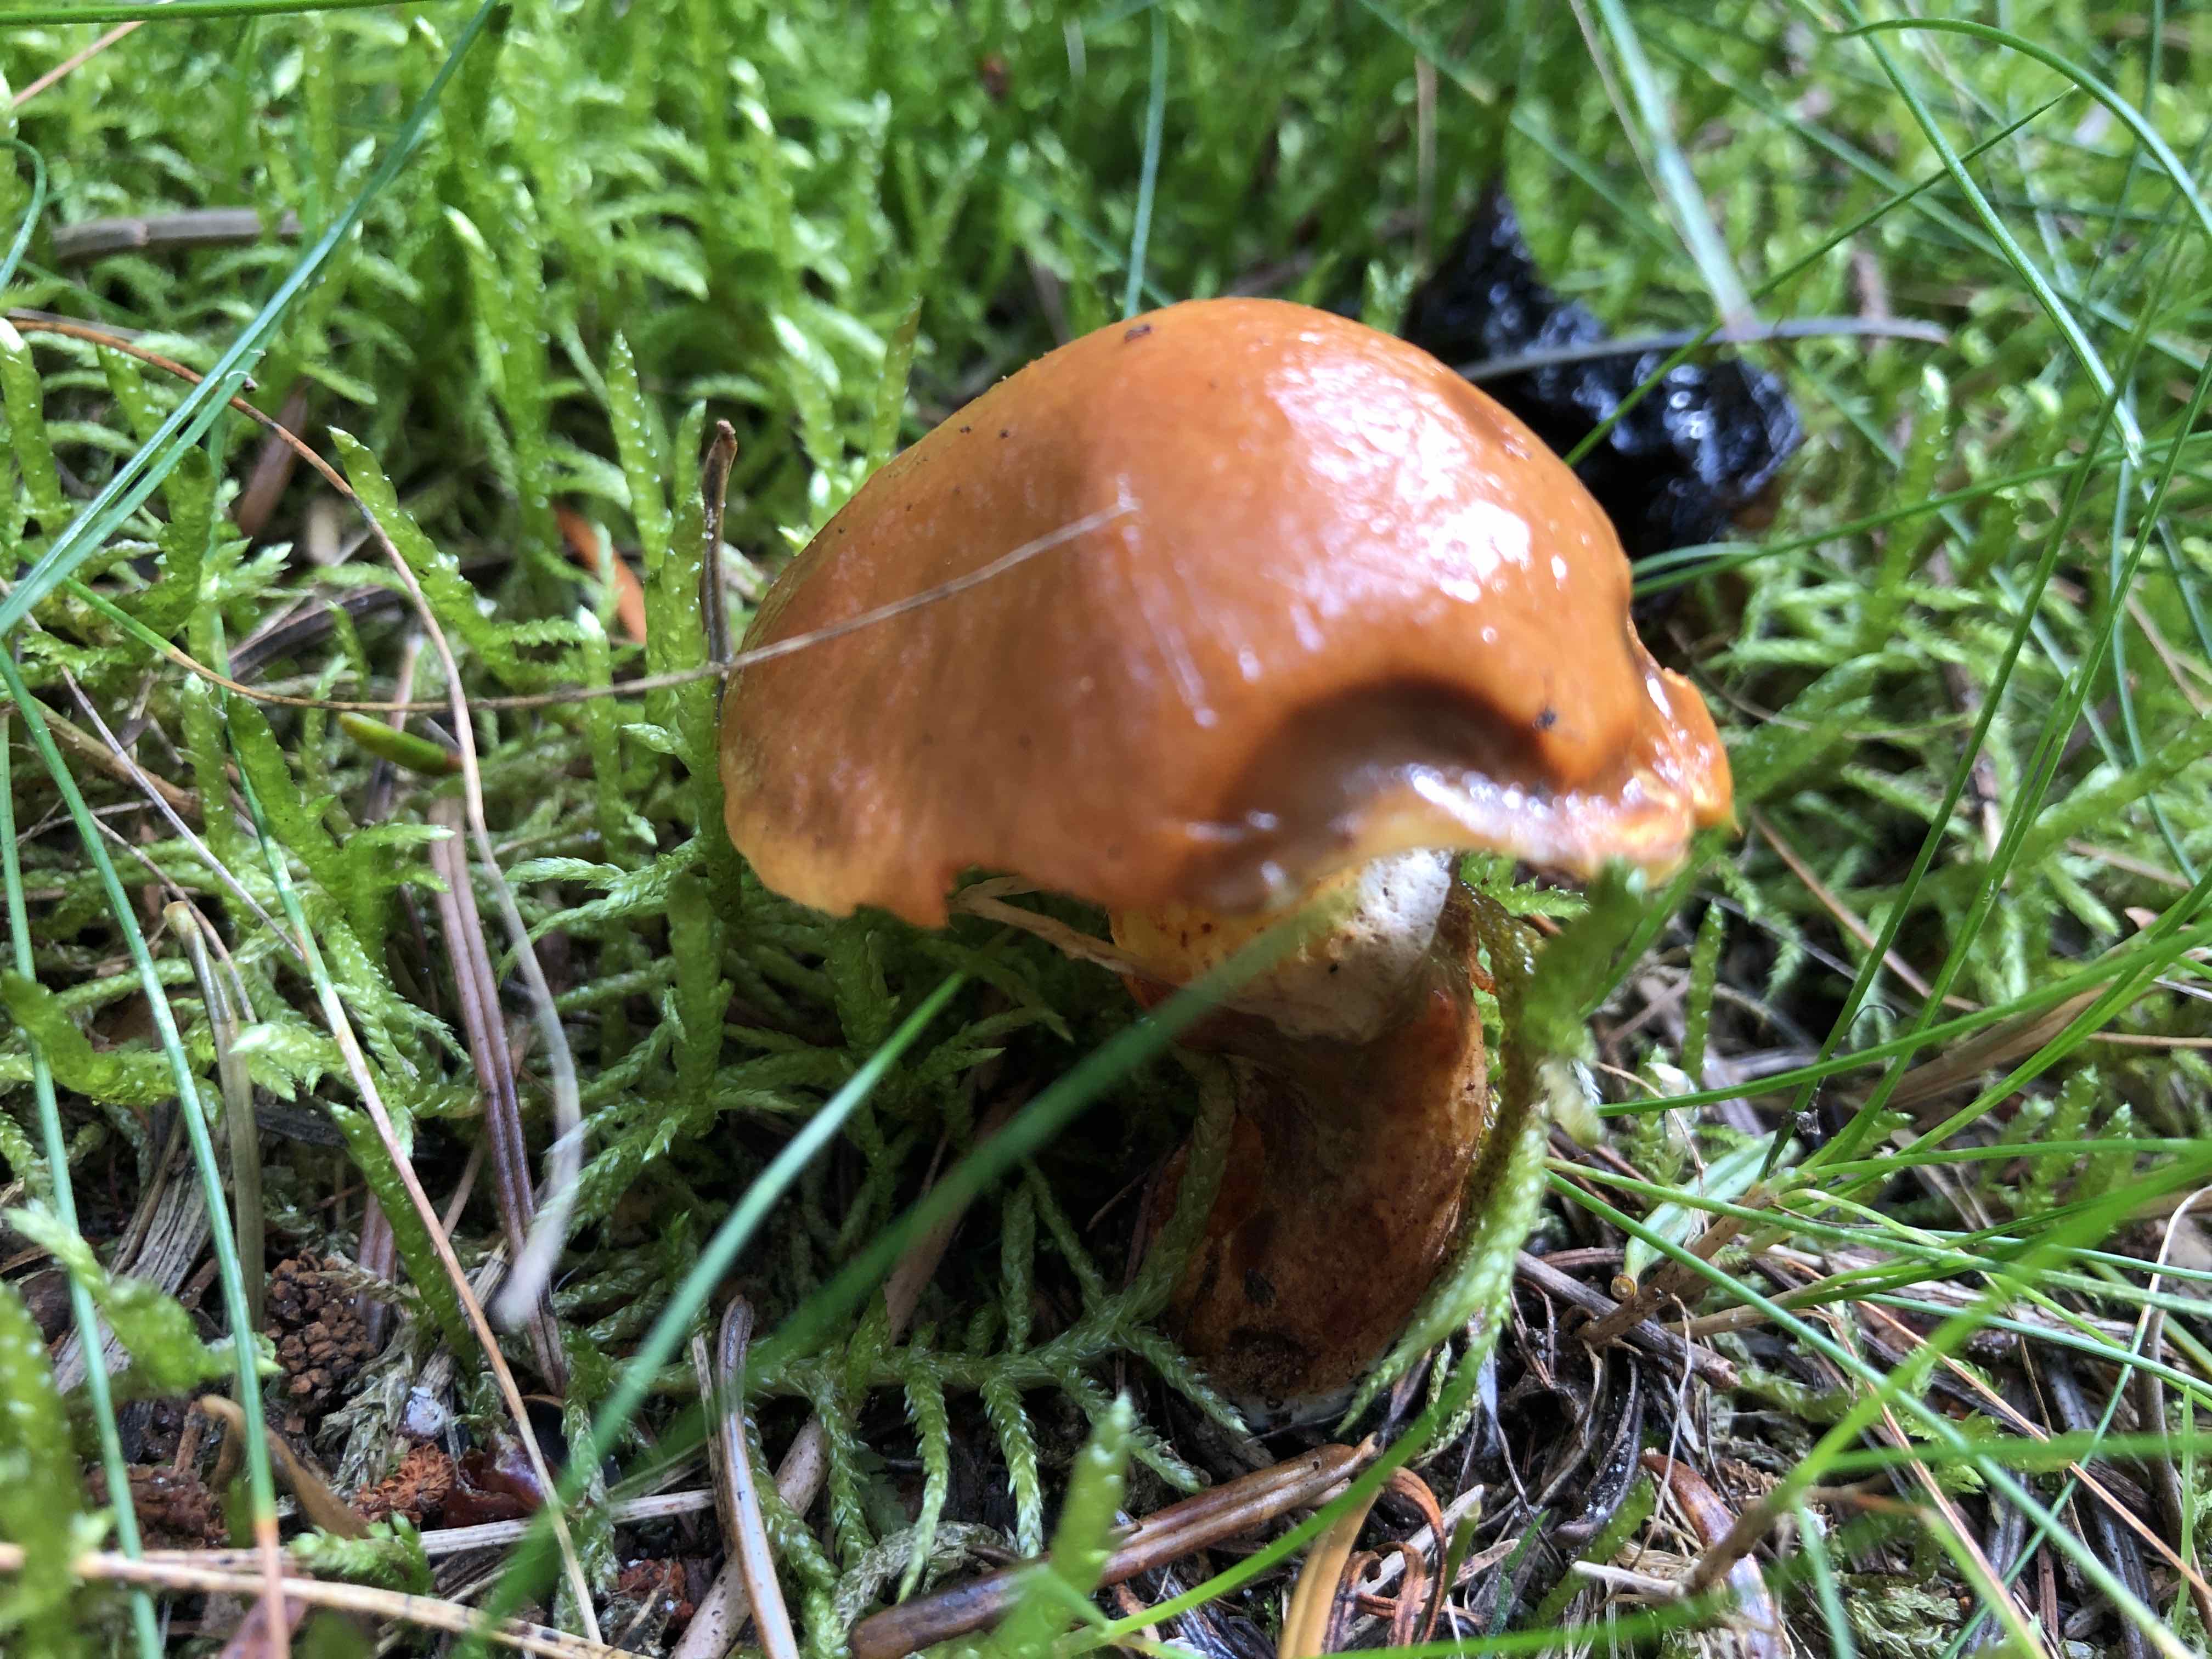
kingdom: Fungi
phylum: Basidiomycota
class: Agaricomycetes
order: Boletales
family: Suillaceae
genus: Suillus
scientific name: Suillus grevillei
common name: lærke-slimrørhat
